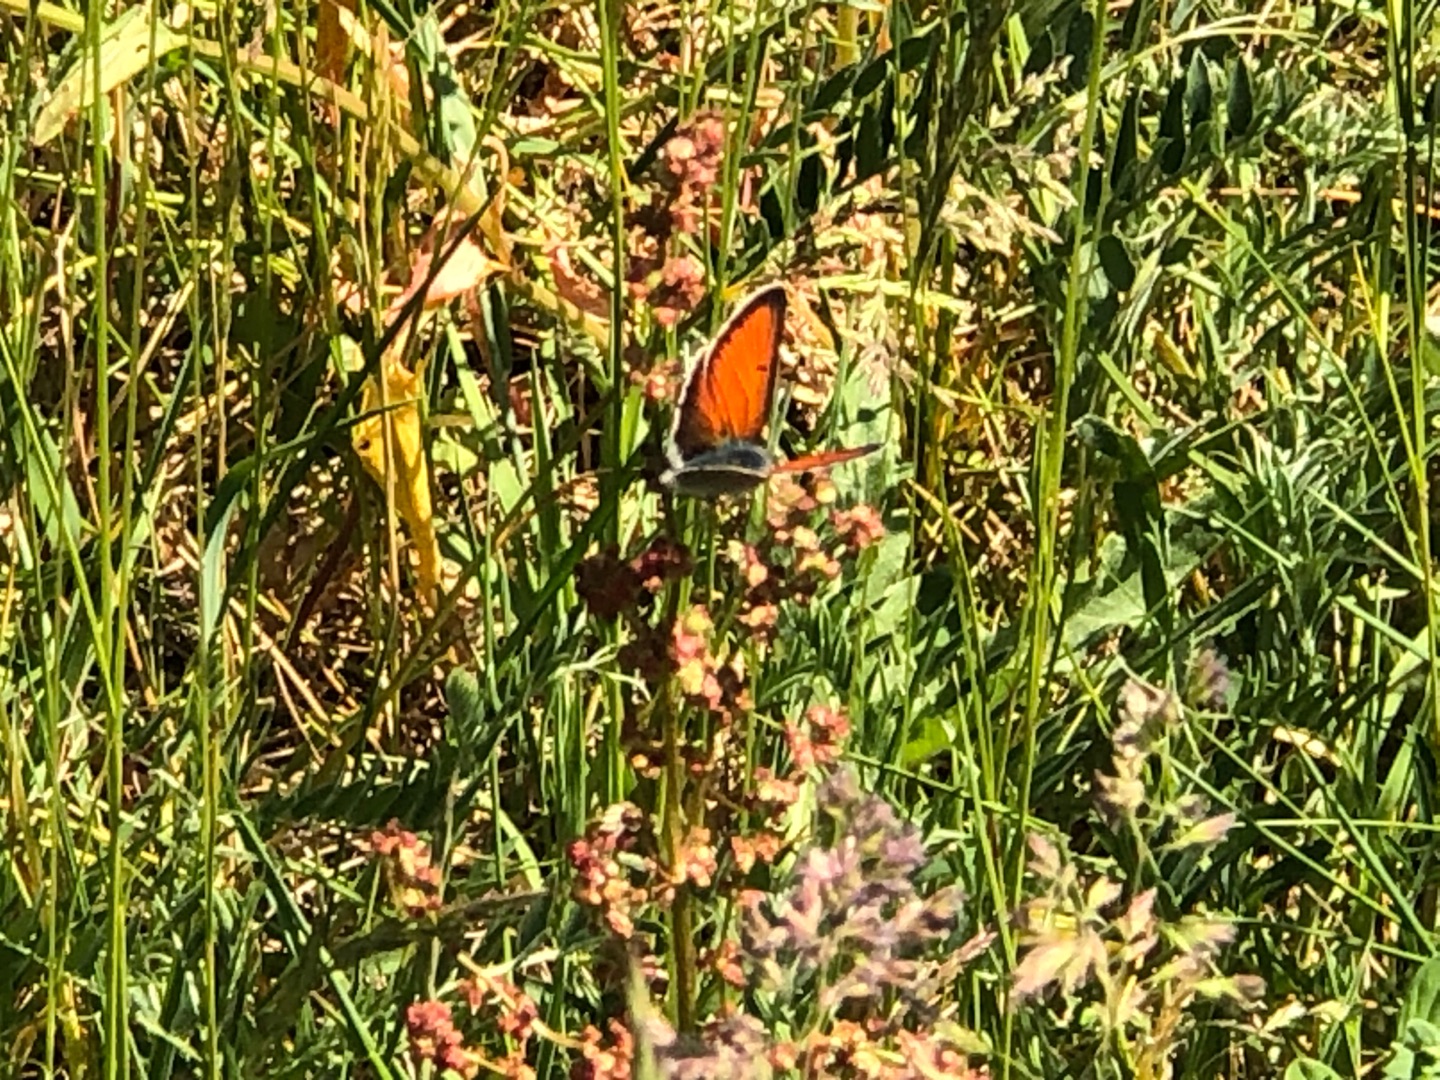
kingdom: Animalia
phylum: Arthropoda
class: Insecta
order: Lepidoptera
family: Lycaenidae
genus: Palaeochrysophanus
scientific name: Palaeochrysophanus hippothoe
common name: Violetrandet ildfugl
